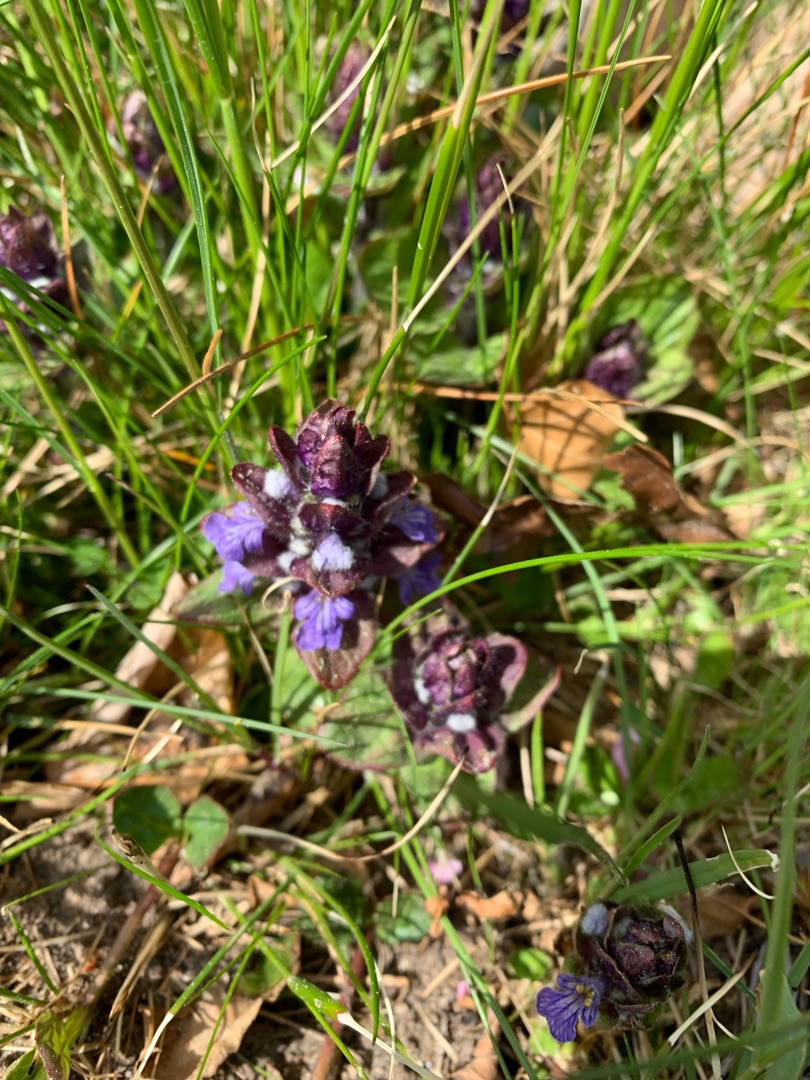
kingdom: Plantae
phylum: Tracheophyta
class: Magnoliopsida
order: Lamiales
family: Lamiaceae
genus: Ajuga
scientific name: Ajuga reptans
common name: Krybende læbeløs
